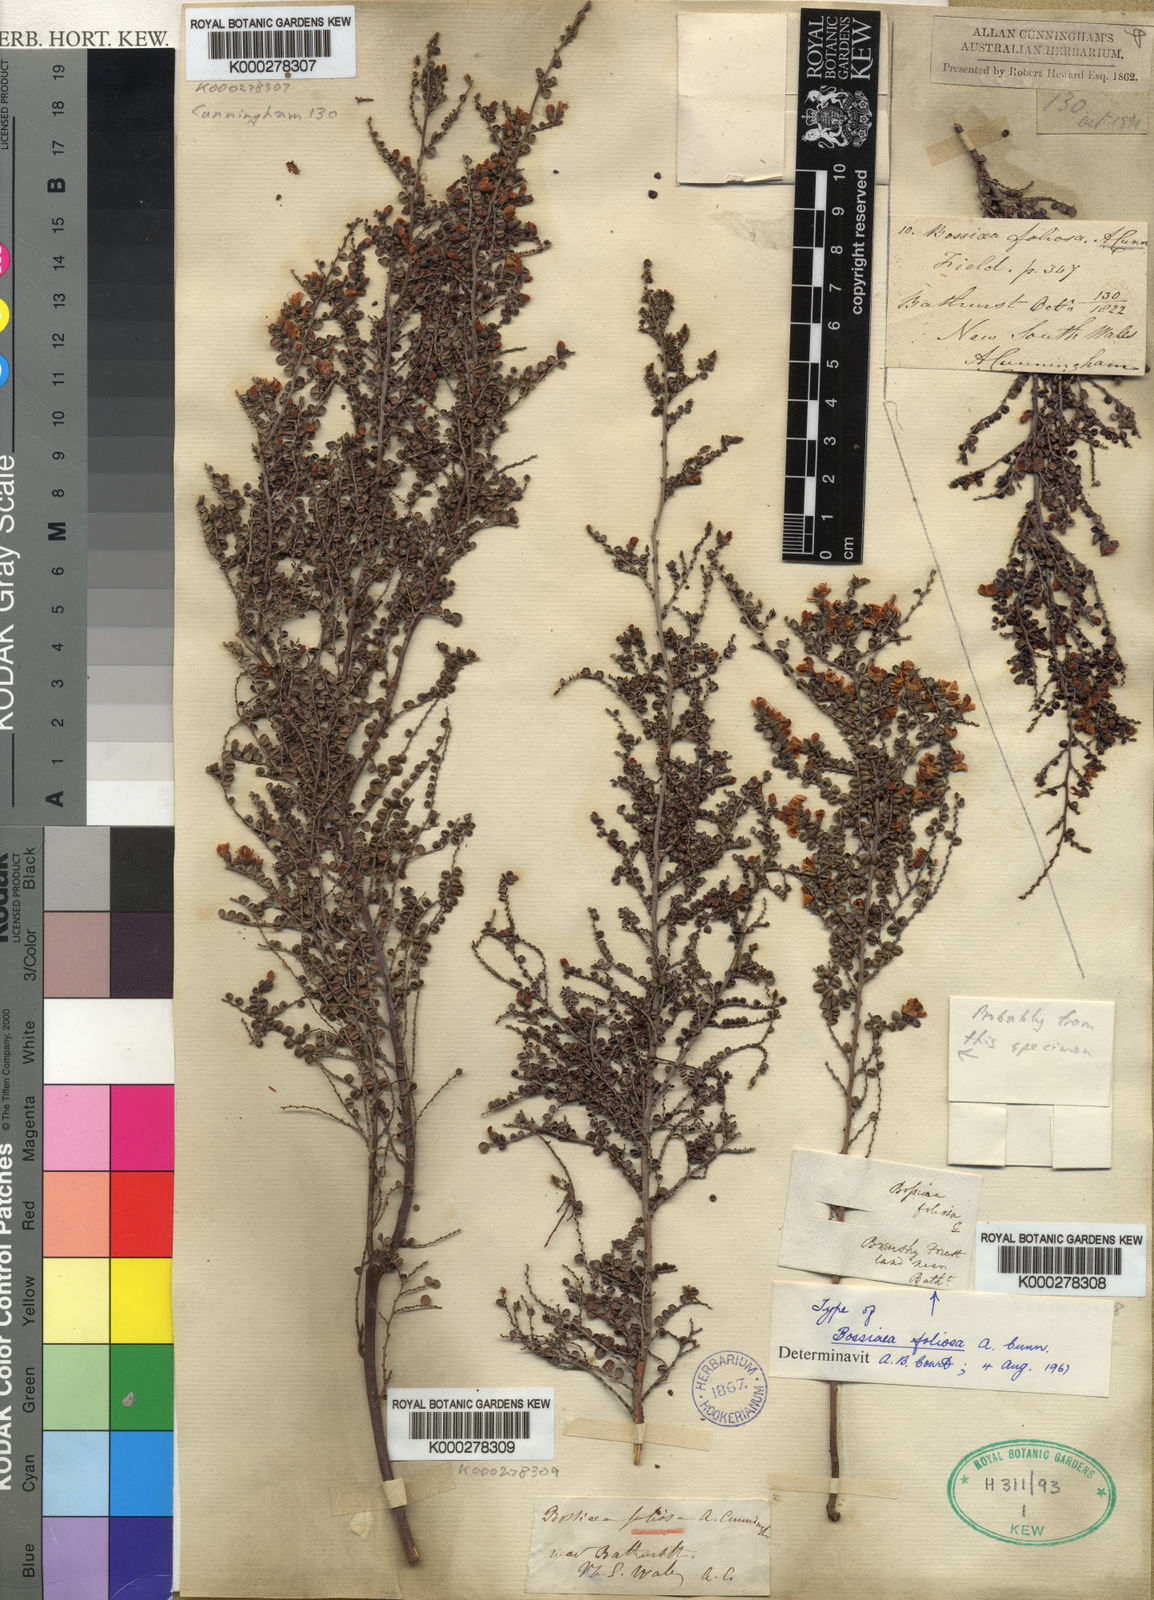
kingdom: Plantae
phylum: Tracheophyta
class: Magnoliopsida
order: Fabales
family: Fabaceae
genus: Bossiaea
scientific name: Bossiaea foliosa
